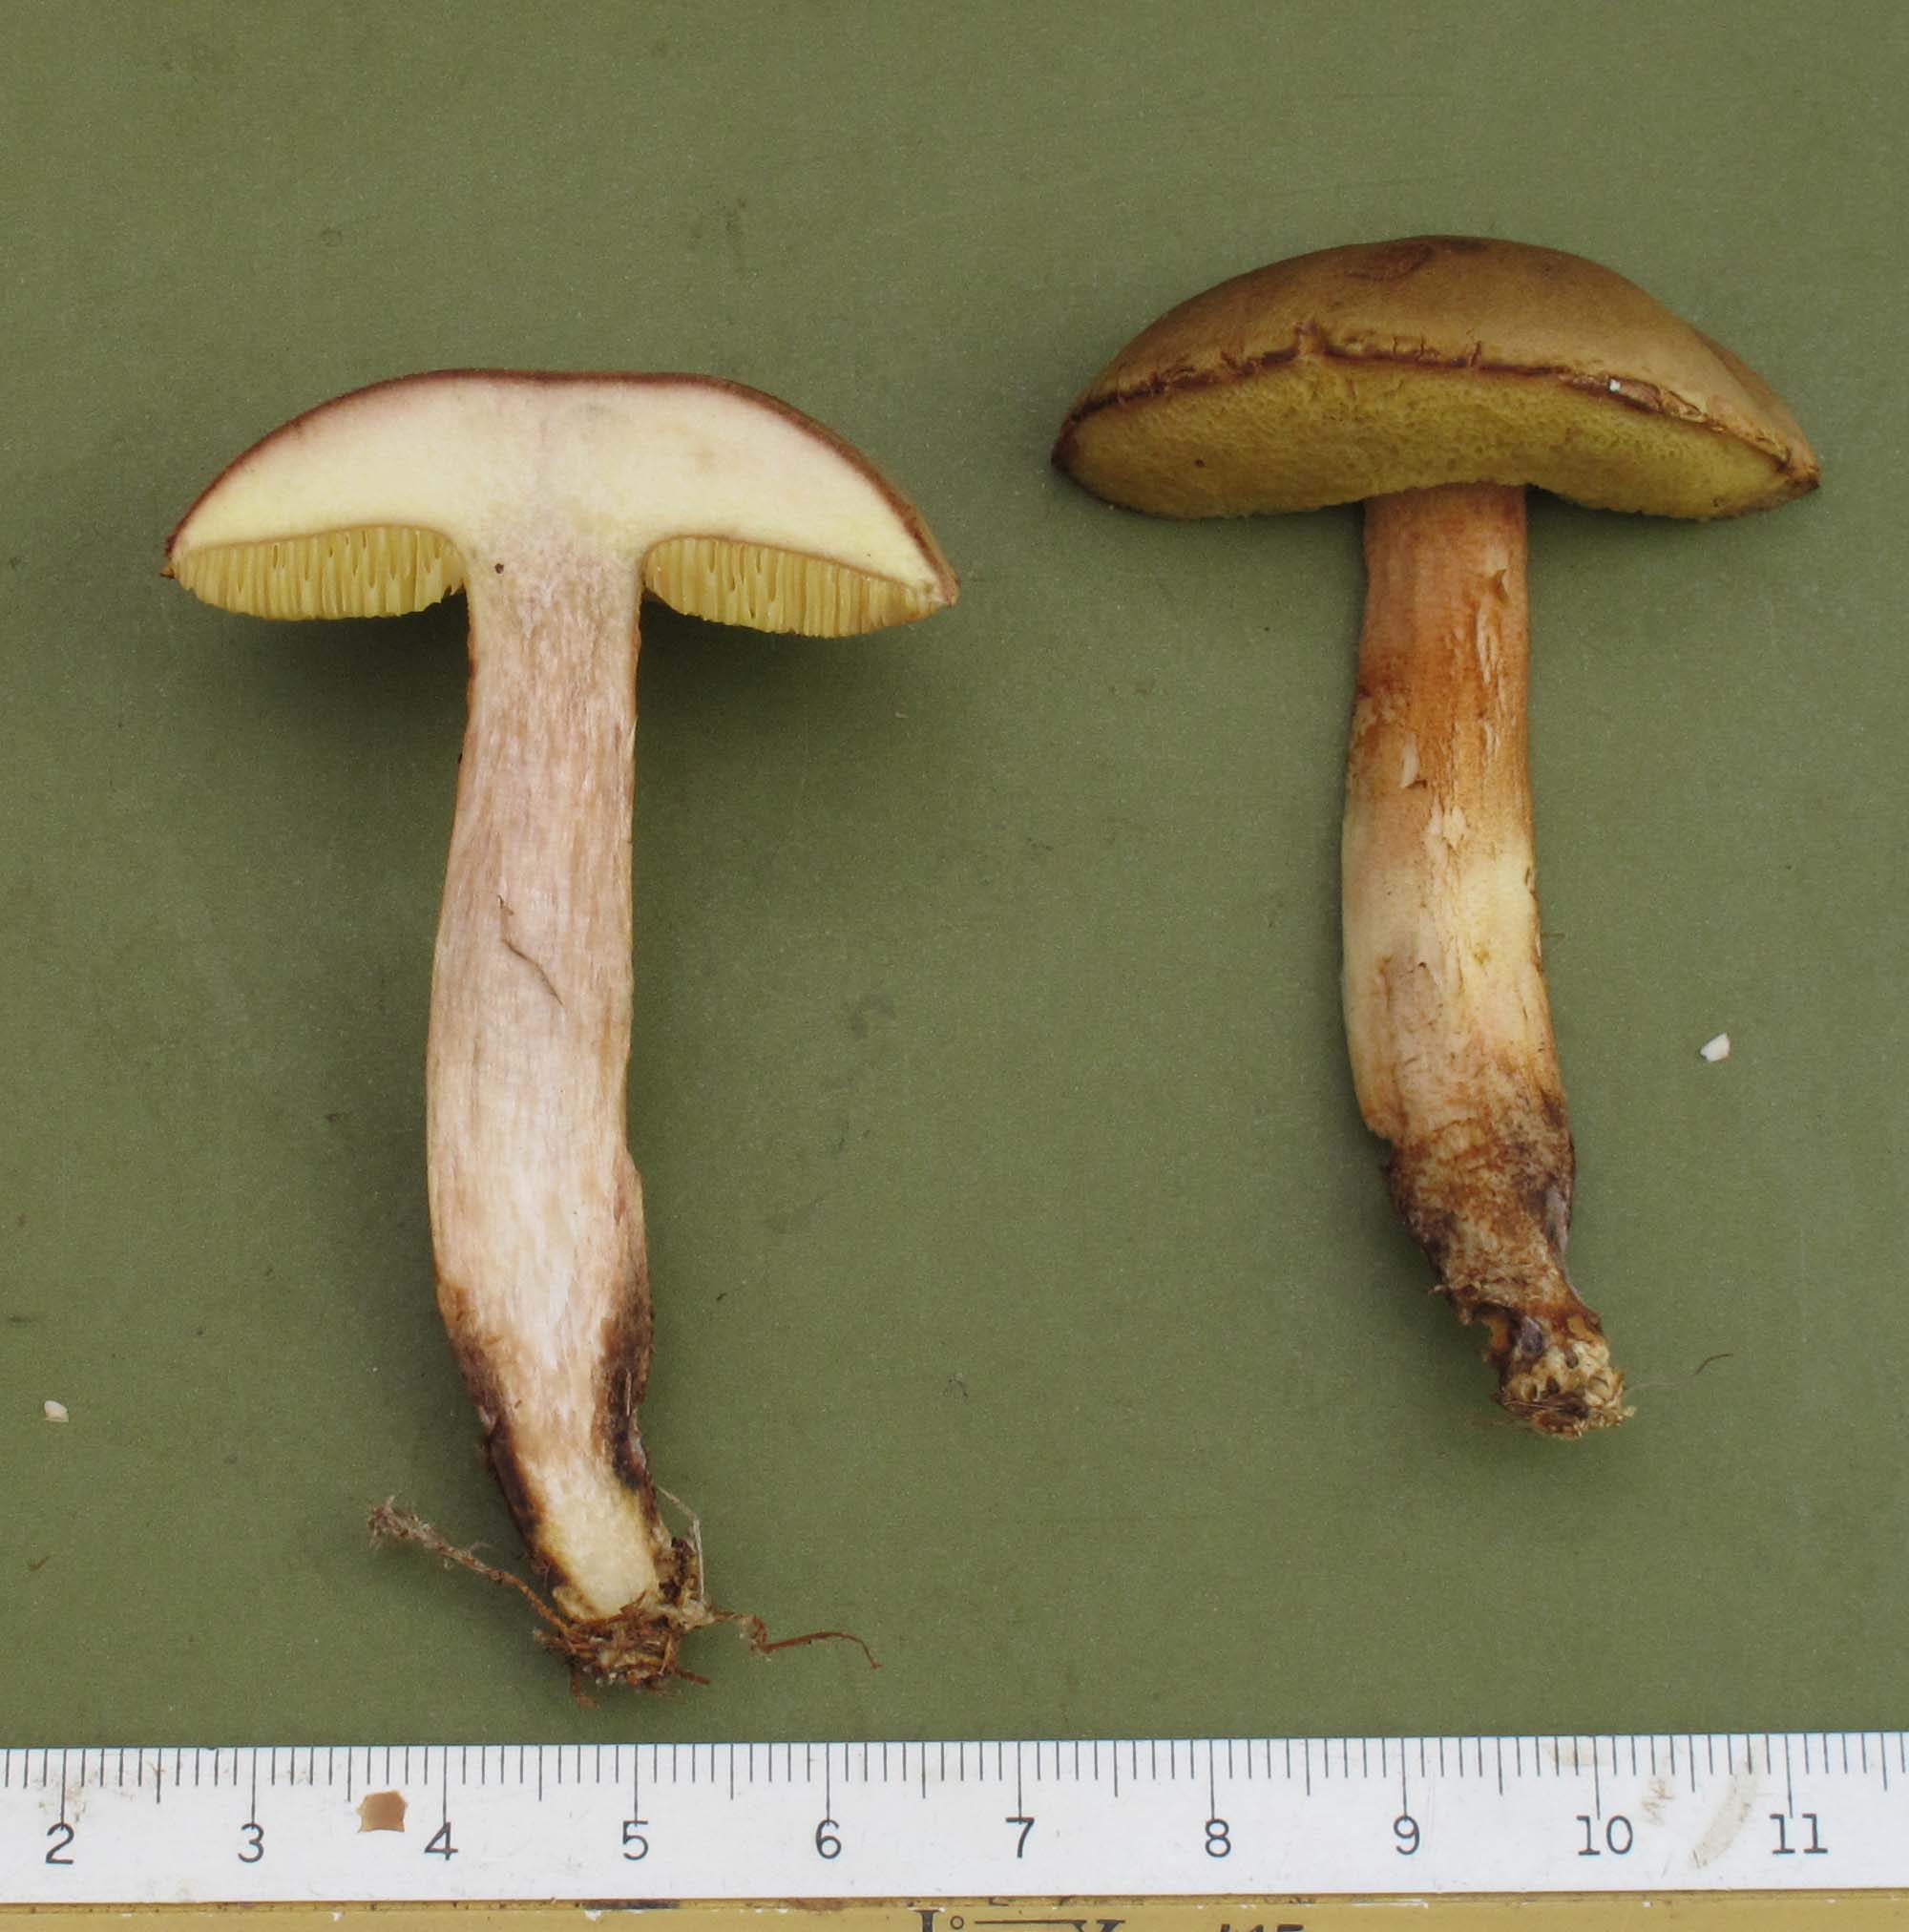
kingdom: Fungi
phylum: Basidiomycota
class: Agaricomycetes
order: Boletales
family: Boletaceae
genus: Xerocomus
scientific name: Xerocomus subtomentosus
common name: filtet rørhat
